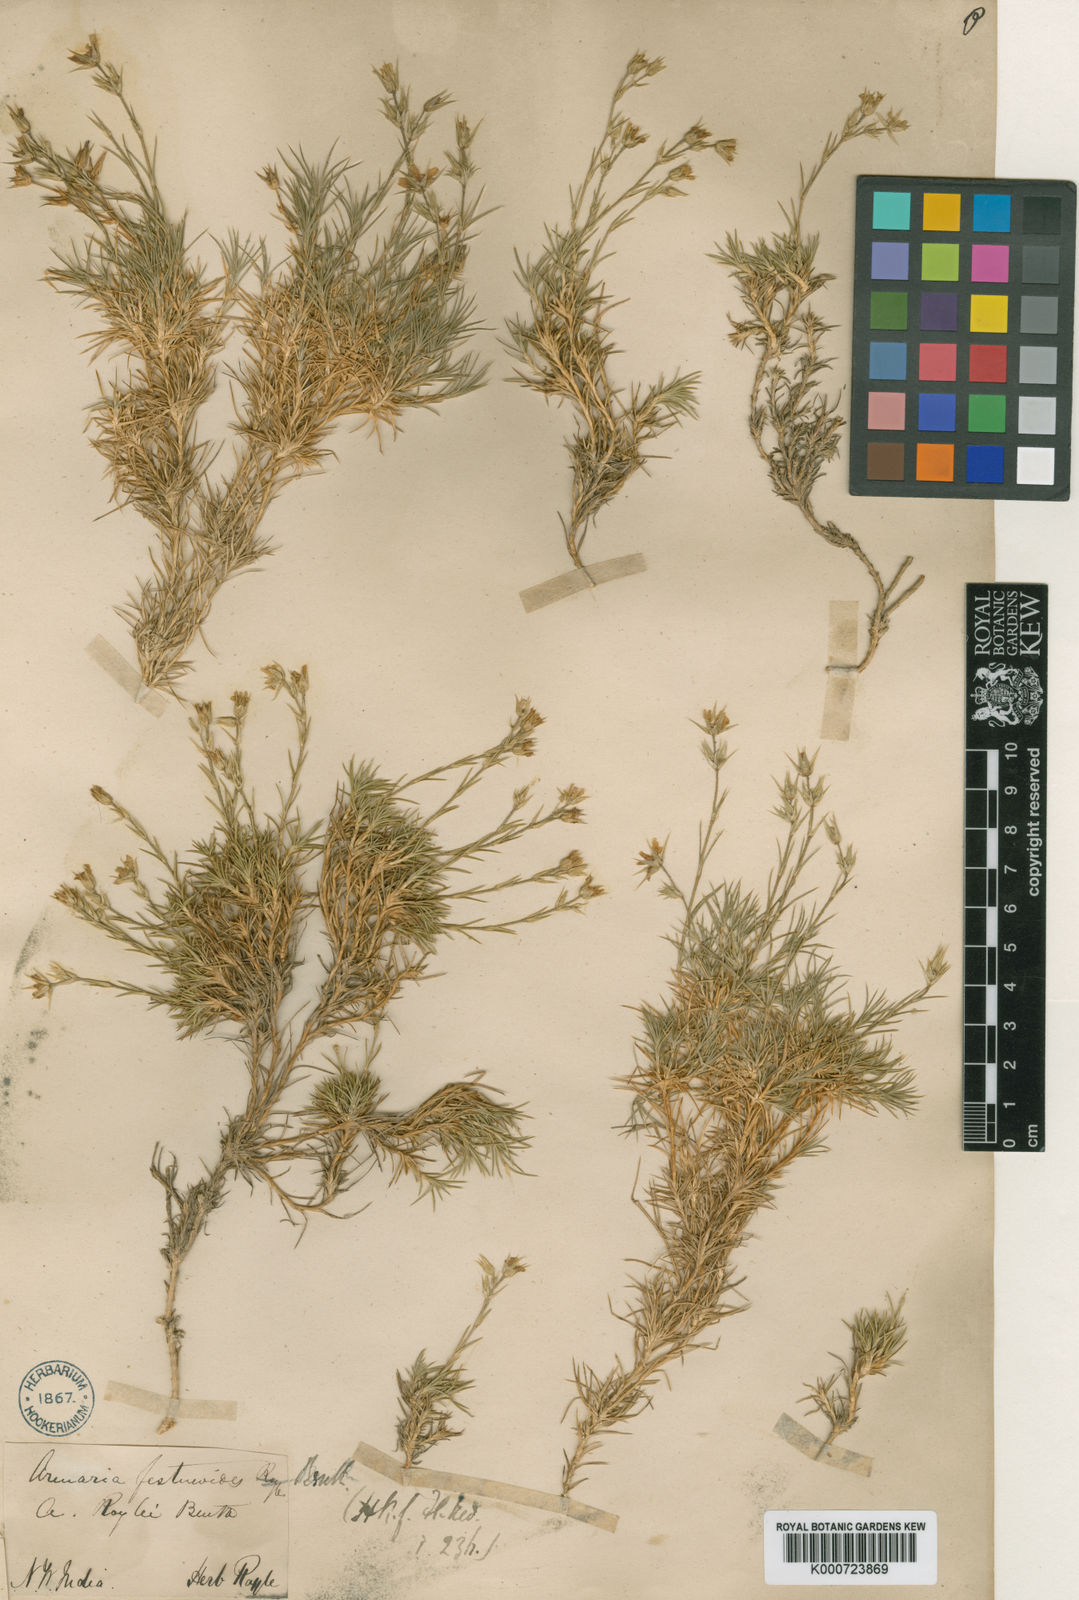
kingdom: Plantae
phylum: Tracheophyta
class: Magnoliopsida
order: Caryophyllales
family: Caryophyllaceae
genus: Eremogone
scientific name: Eremogone festucoides
